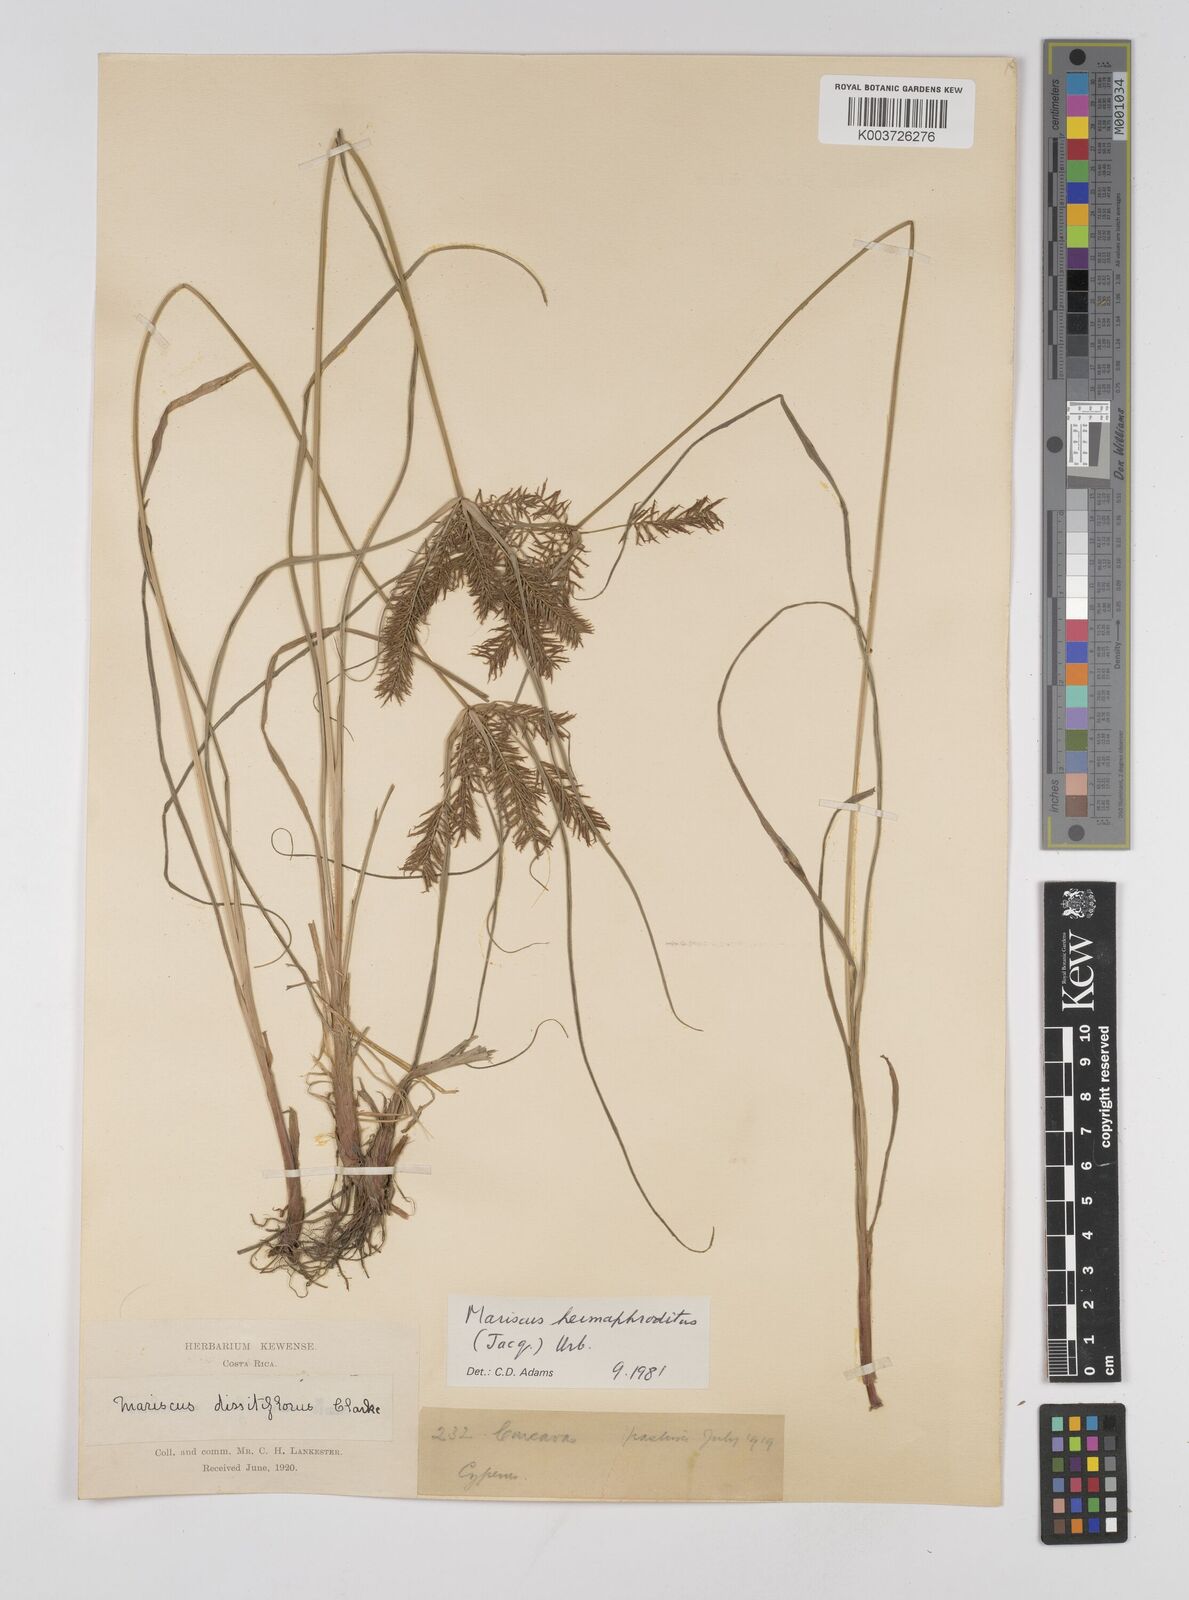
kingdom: Plantae
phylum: Tracheophyta
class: Liliopsida
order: Poales
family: Cyperaceae
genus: Cyperus
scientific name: Cyperus hermaphroditus
